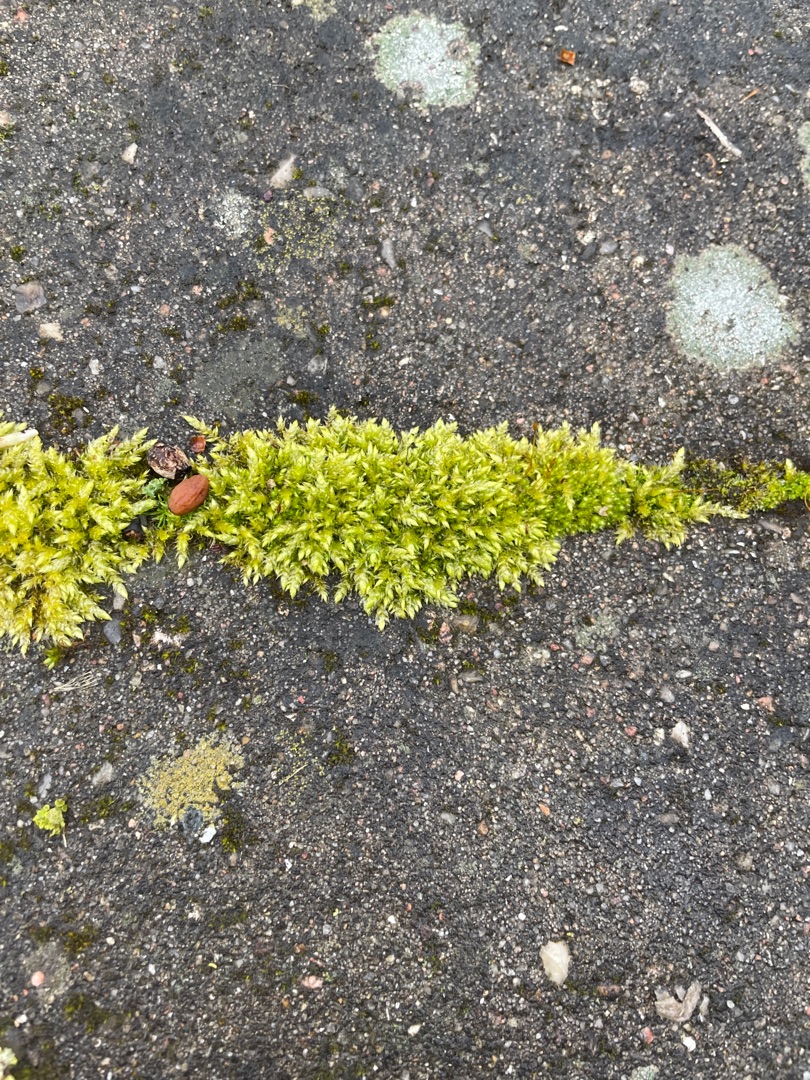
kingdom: Plantae
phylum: Bryophyta
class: Bryopsida
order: Hypnales
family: Brachytheciaceae
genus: Brachythecium
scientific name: Brachythecium rutabulum
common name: Almindelig kortkapsel
